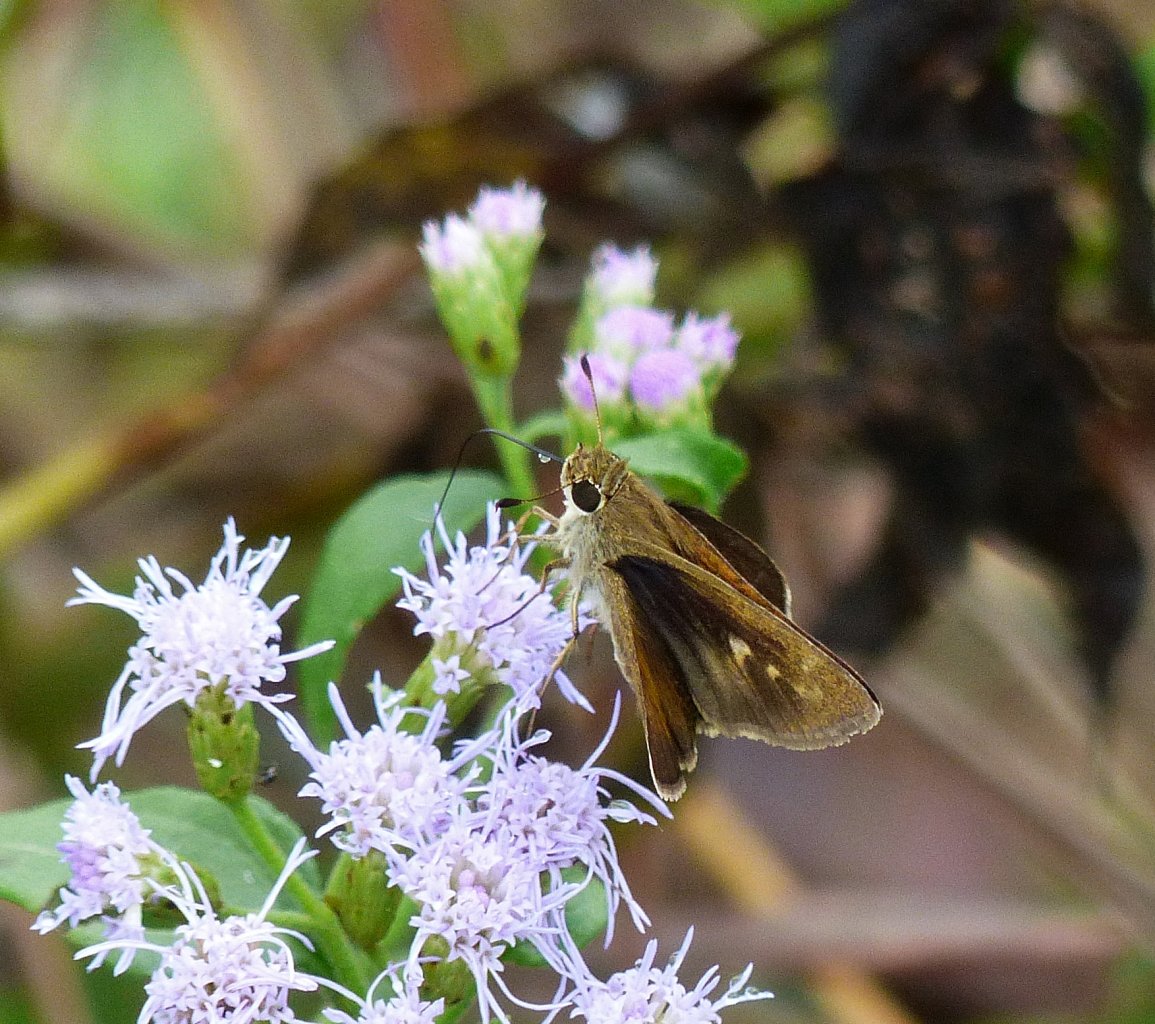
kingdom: Animalia
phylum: Arthropoda
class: Insecta
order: Lepidoptera
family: Hesperiidae
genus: Polites
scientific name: Polites vibex
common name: Whirlabout
